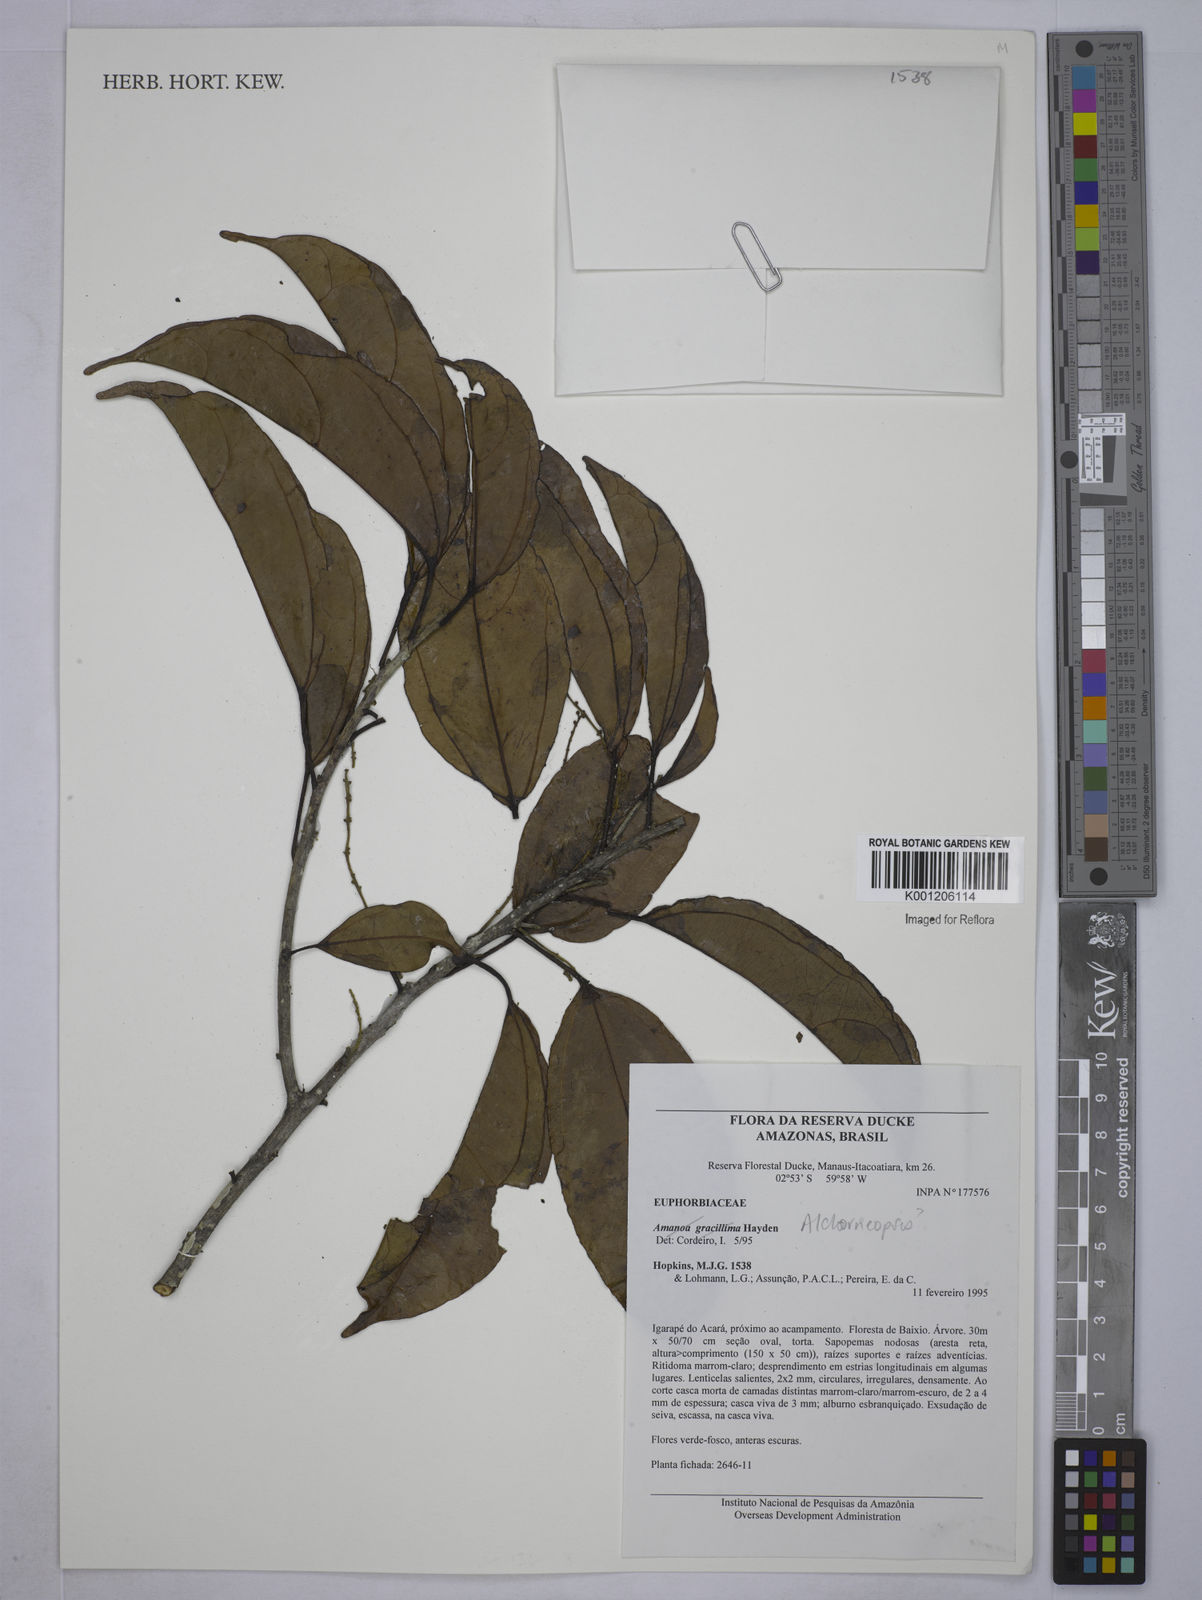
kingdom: Plantae
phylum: Tracheophyta
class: Magnoliopsida
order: Malpighiales
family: Euphorbiaceae
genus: Alchorneopsis
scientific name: Alchorneopsis
